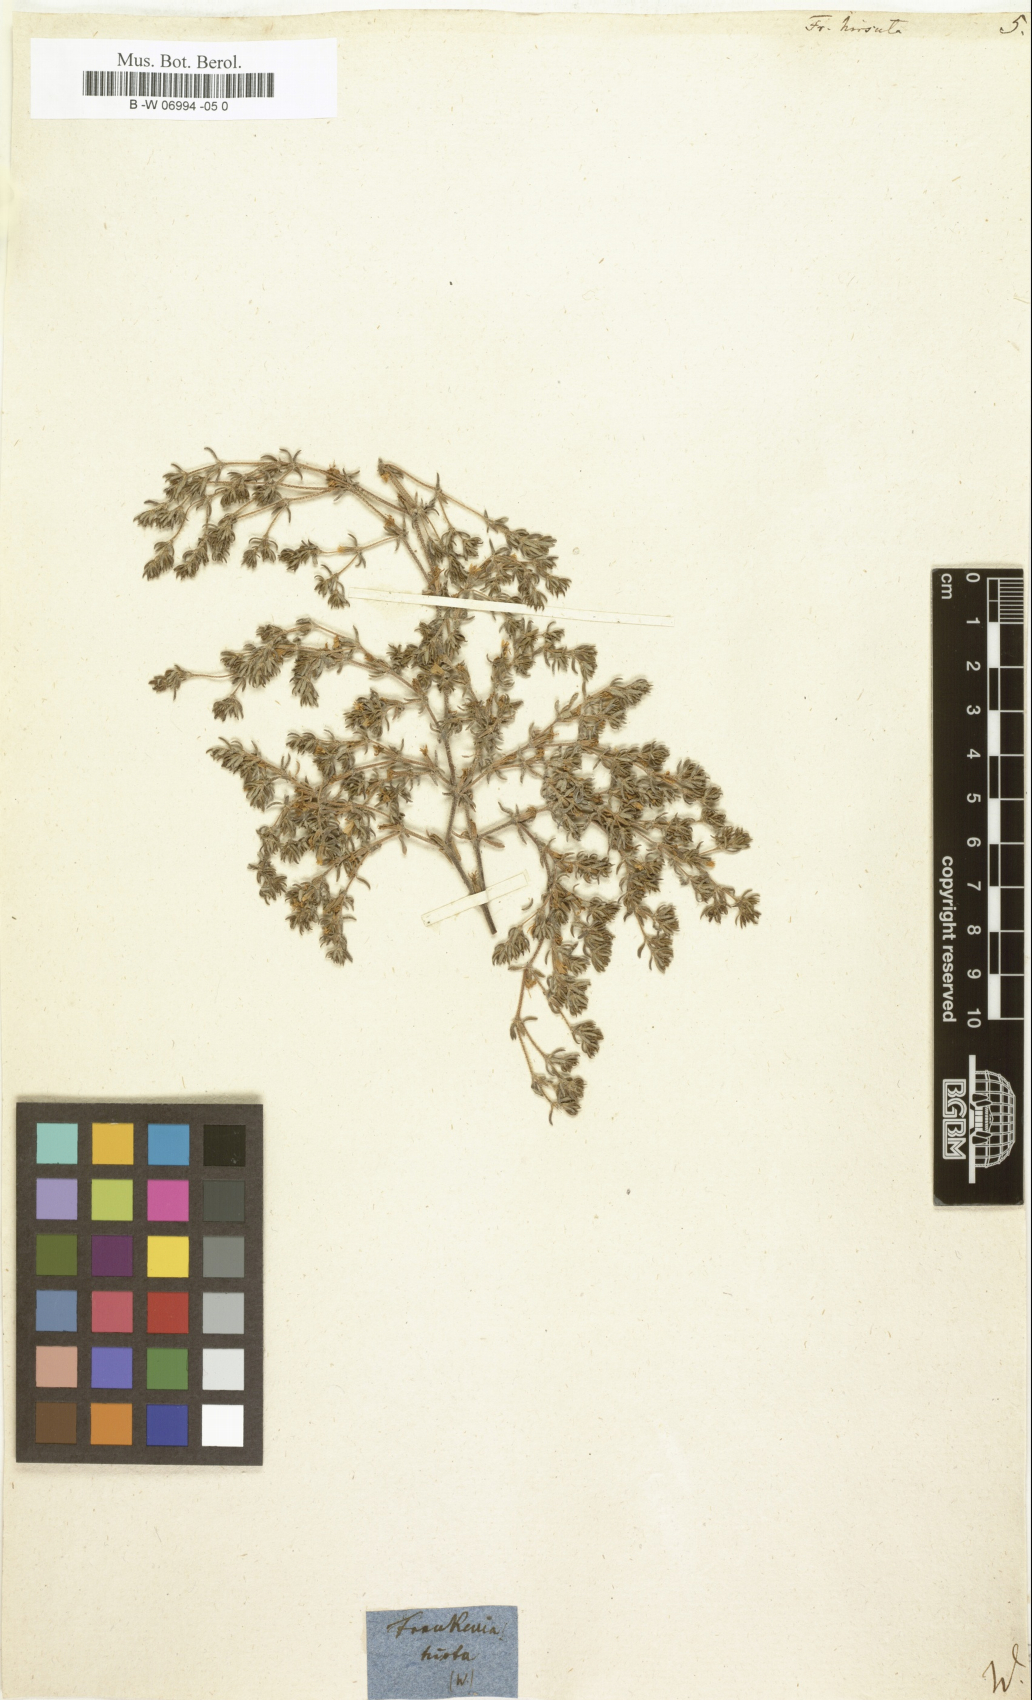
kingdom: Plantae
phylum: Tracheophyta
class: Magnoliopsida
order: Caryophyllales
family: Frankeniaceae
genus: Frankenia
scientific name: Frankenia hirsuta
